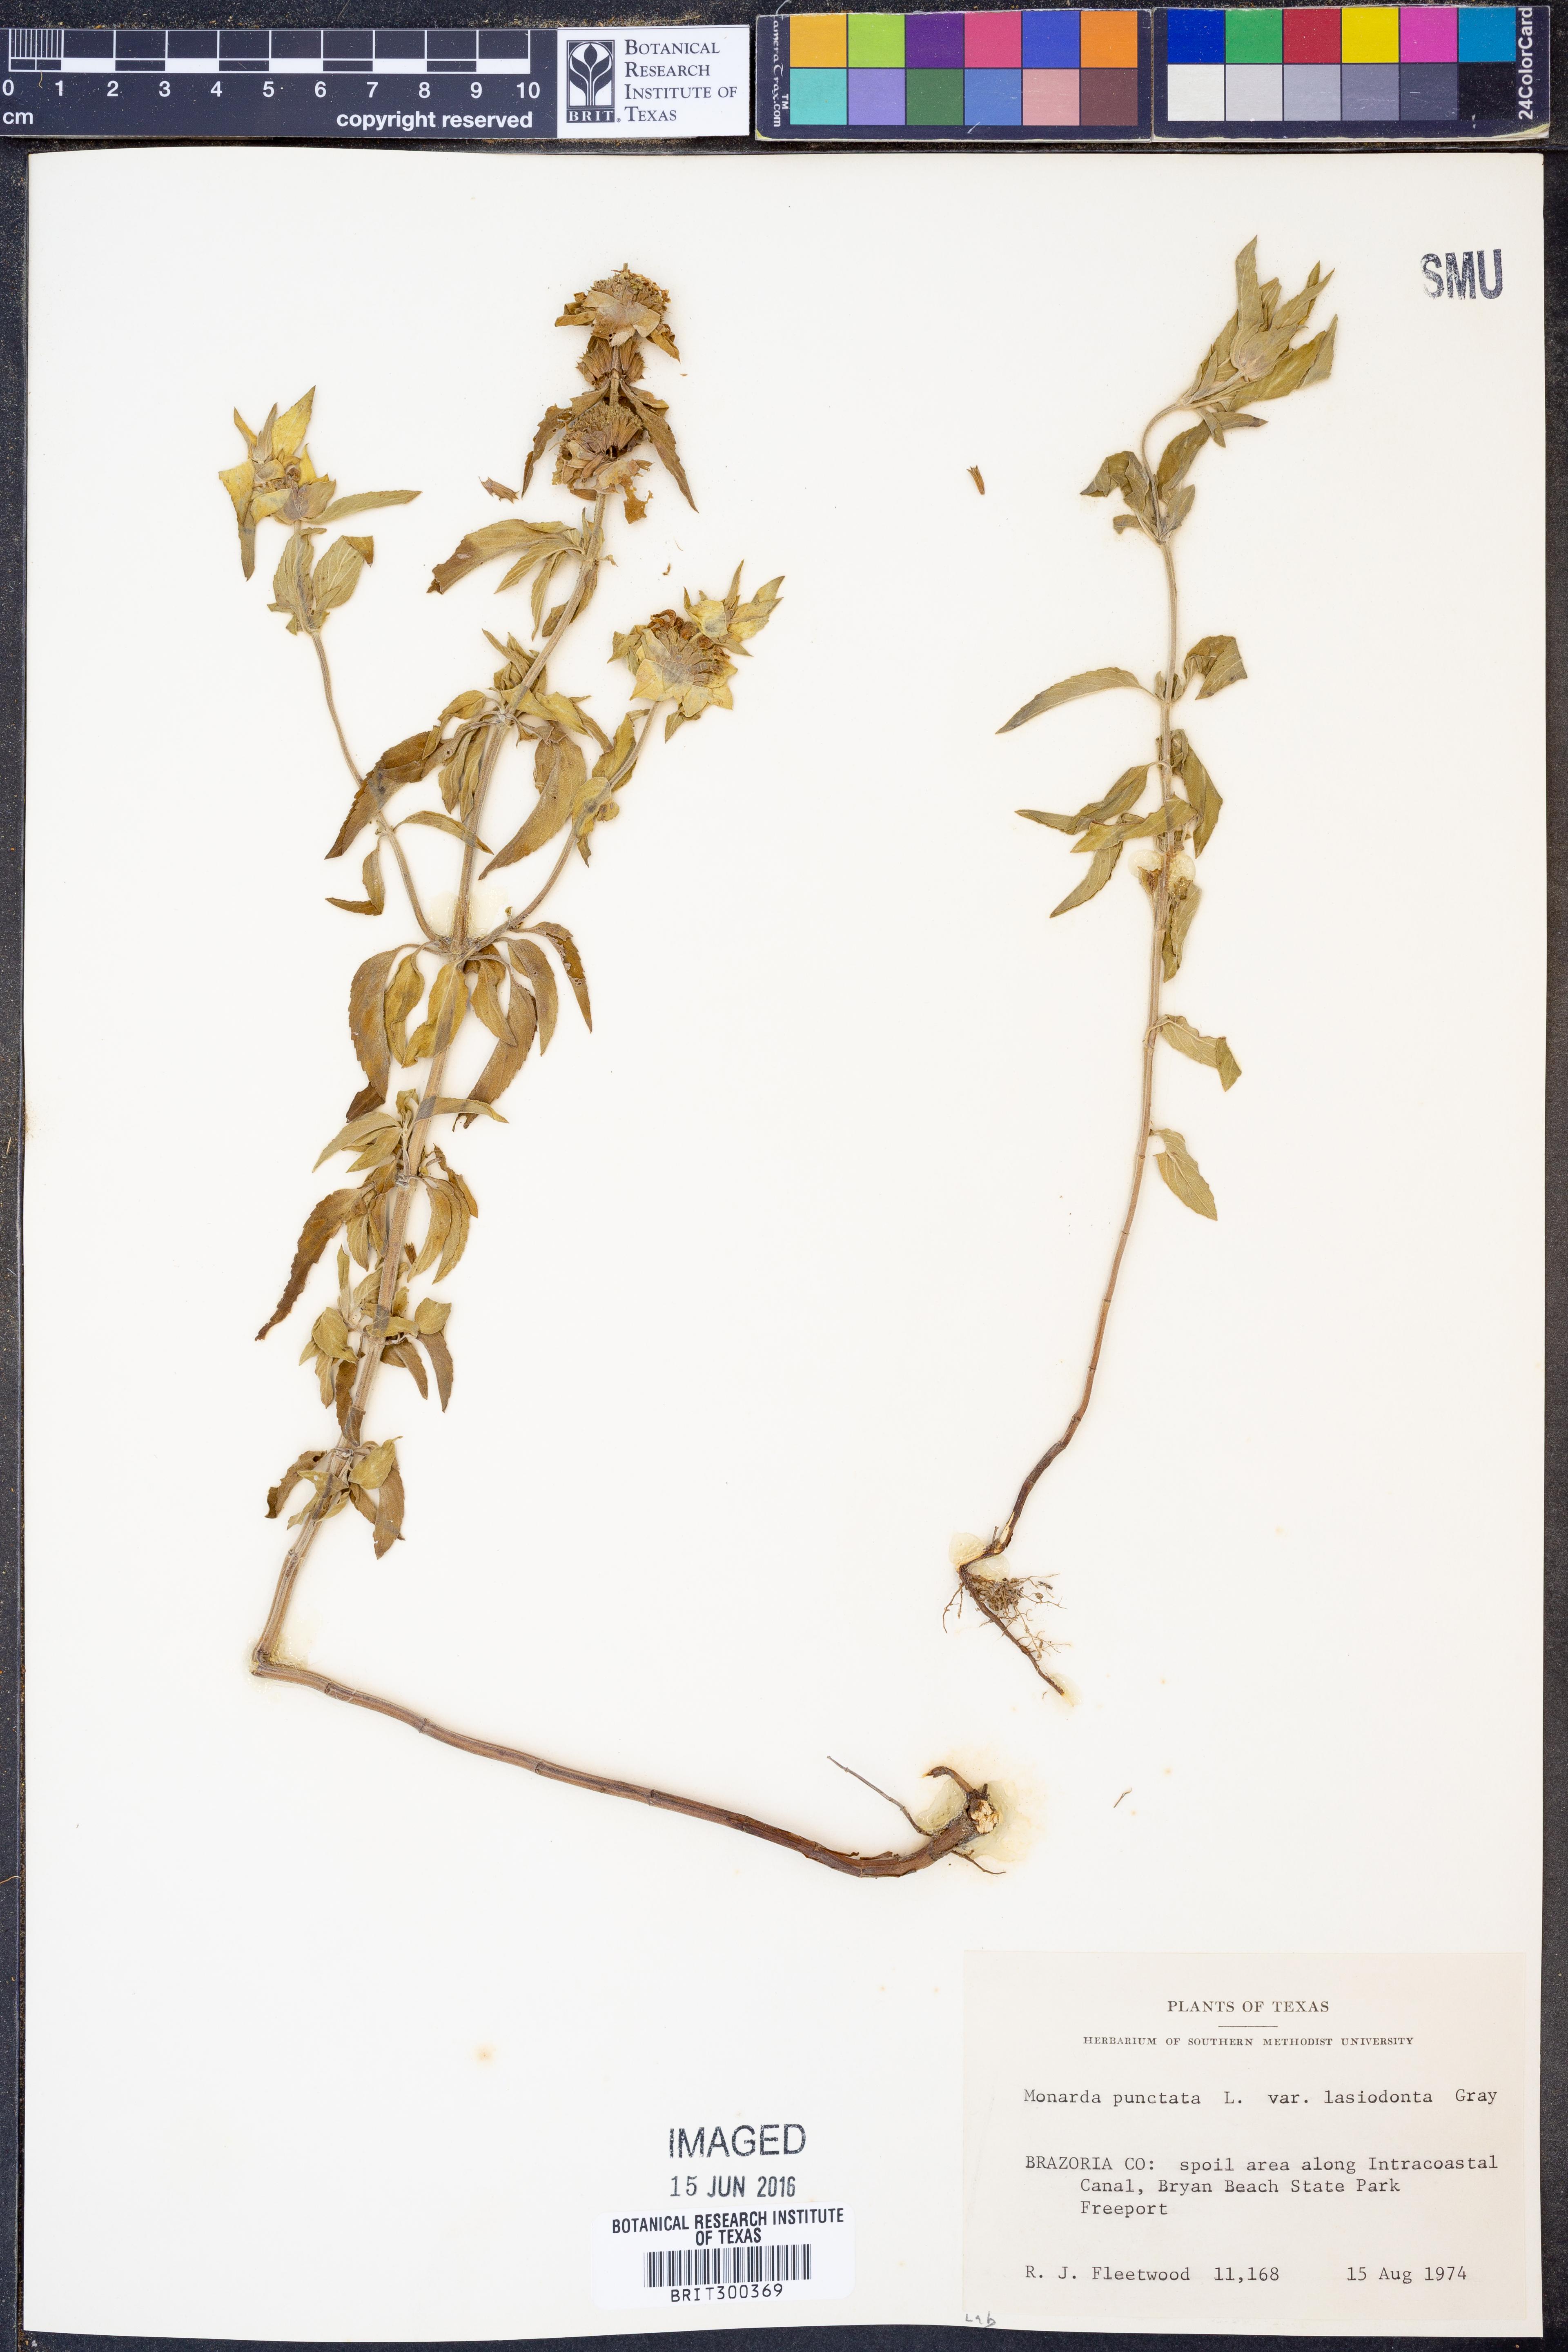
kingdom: Plantae
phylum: Tracheophyta
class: Magnoliopsida
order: Lamiales
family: Lamiaceae
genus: Monarda
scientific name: Monarda punctata
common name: Dotted monarda
